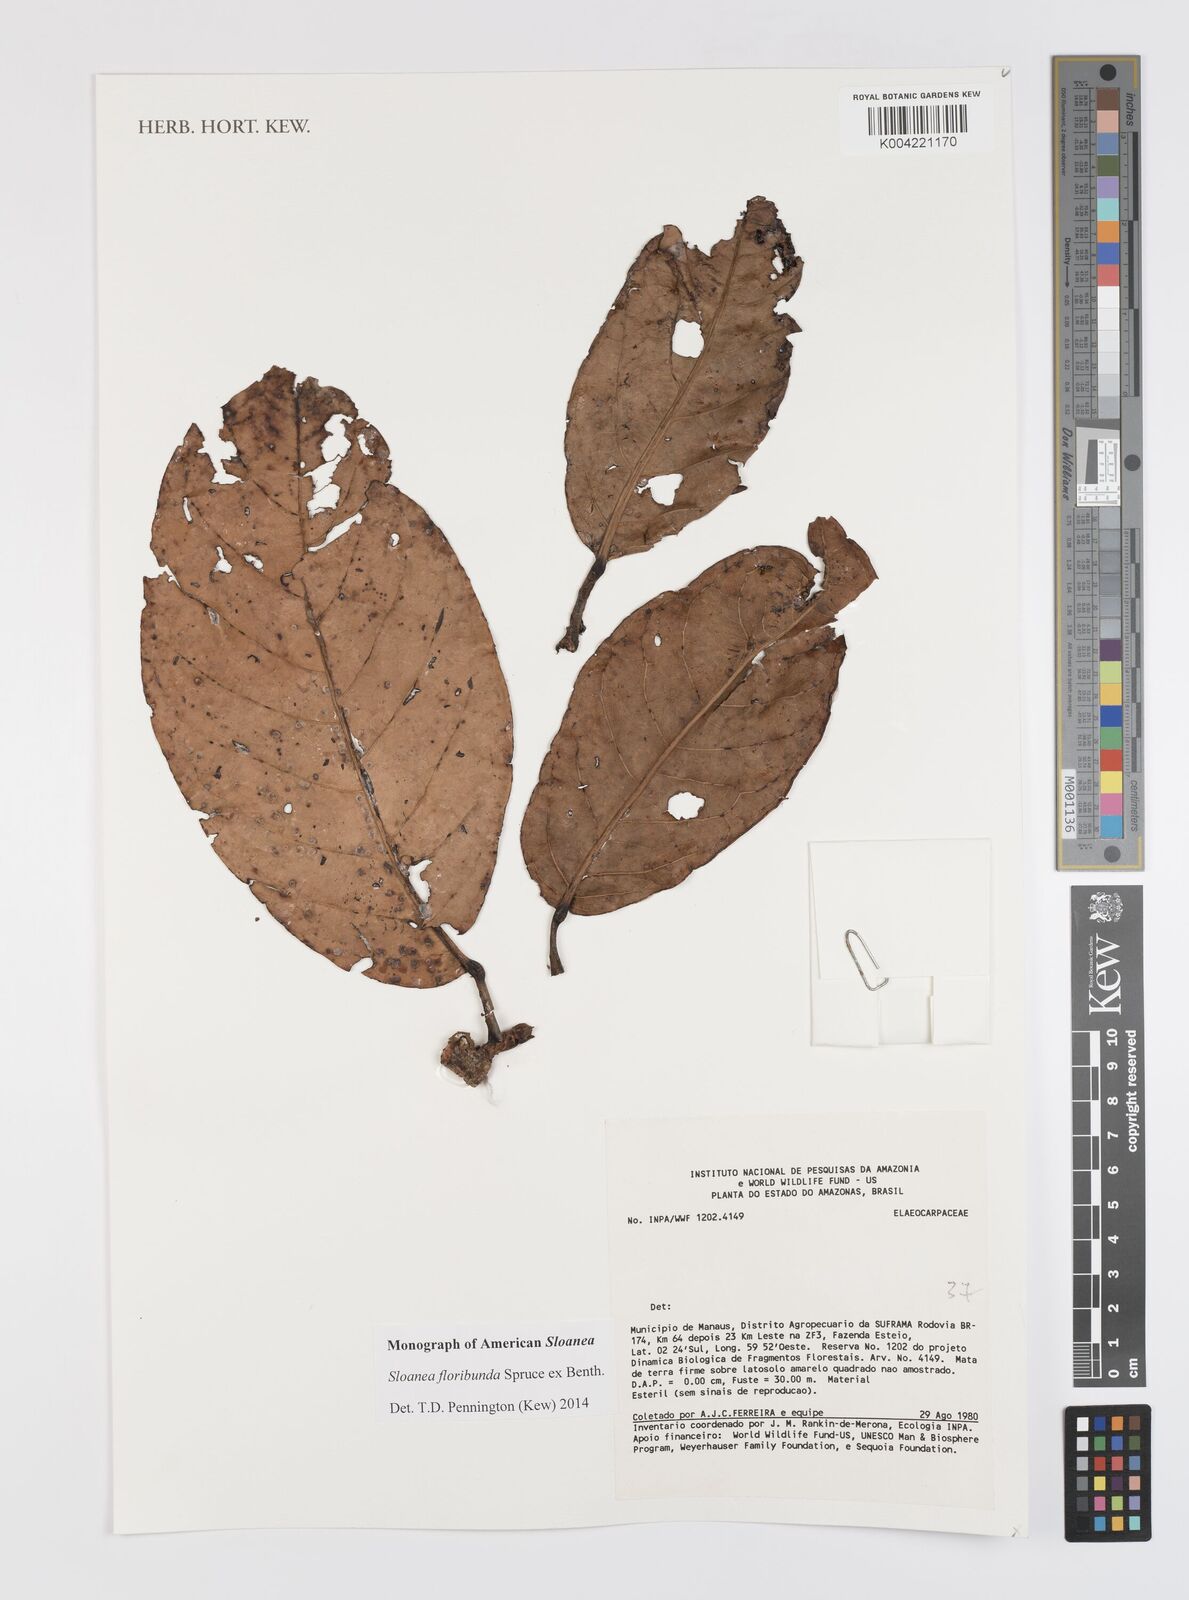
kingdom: Plantae
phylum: Tracheophyta
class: Magnoliopsida
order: Oxalidales
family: Elaeocarpaceae
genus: Sloanea
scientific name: Sloanea floribunda
